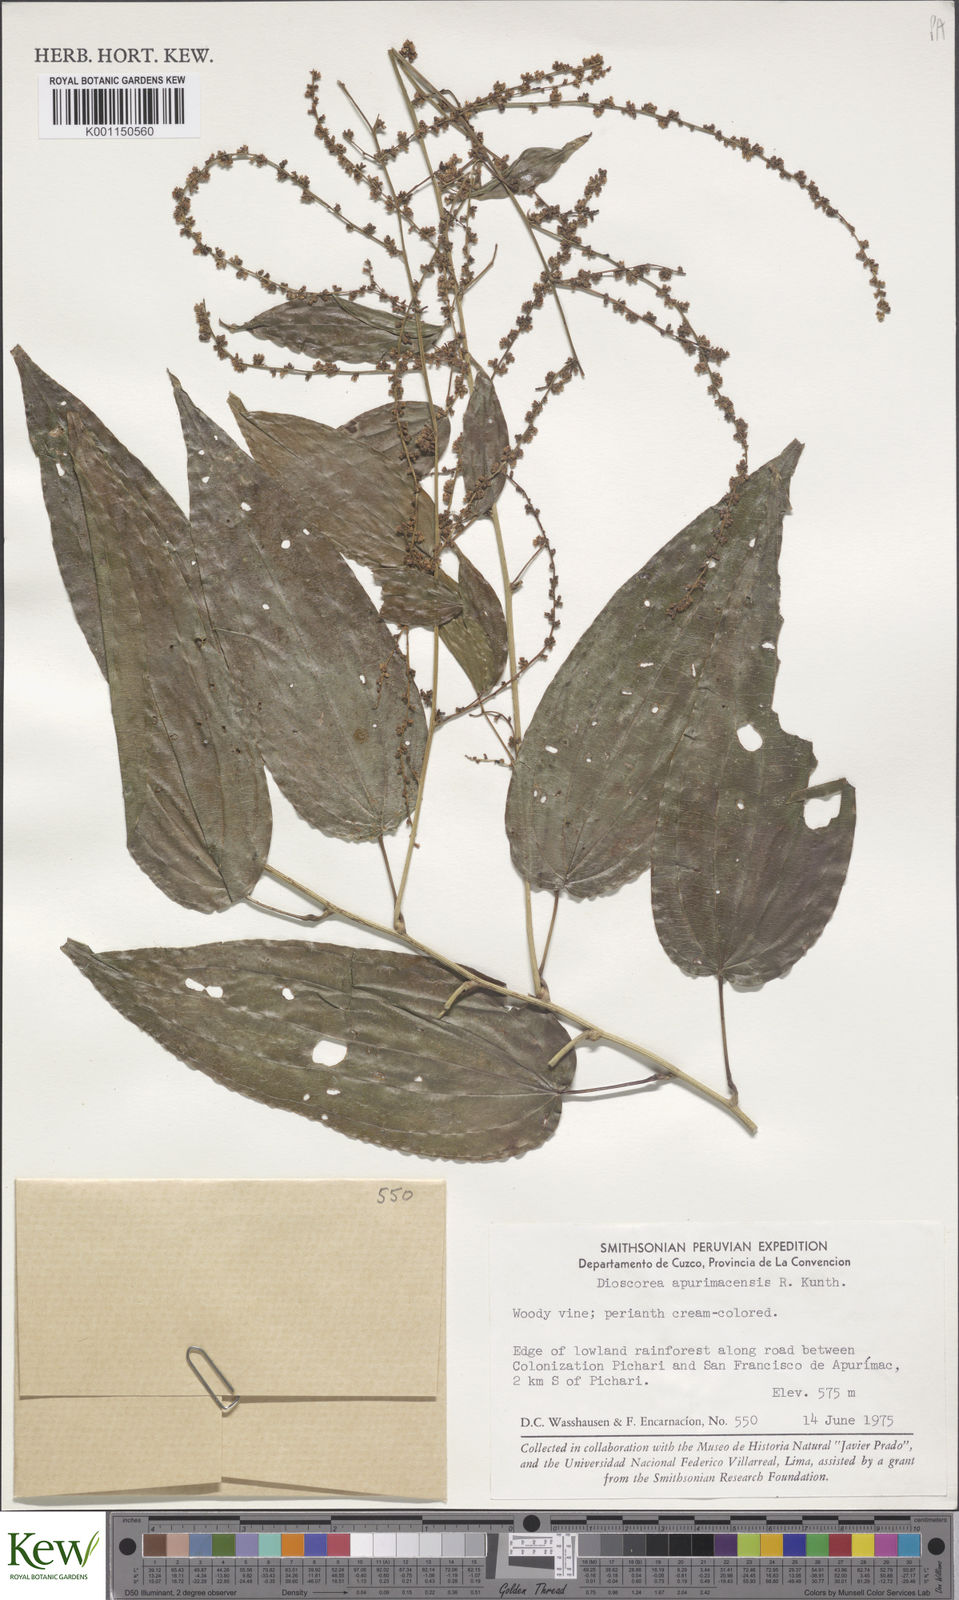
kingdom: Plantae
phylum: Tracheophyta
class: Liliopsida
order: Dioscoreales
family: Dioscoreaceae
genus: Dioscorea
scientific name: Dioscorea acanthogene
